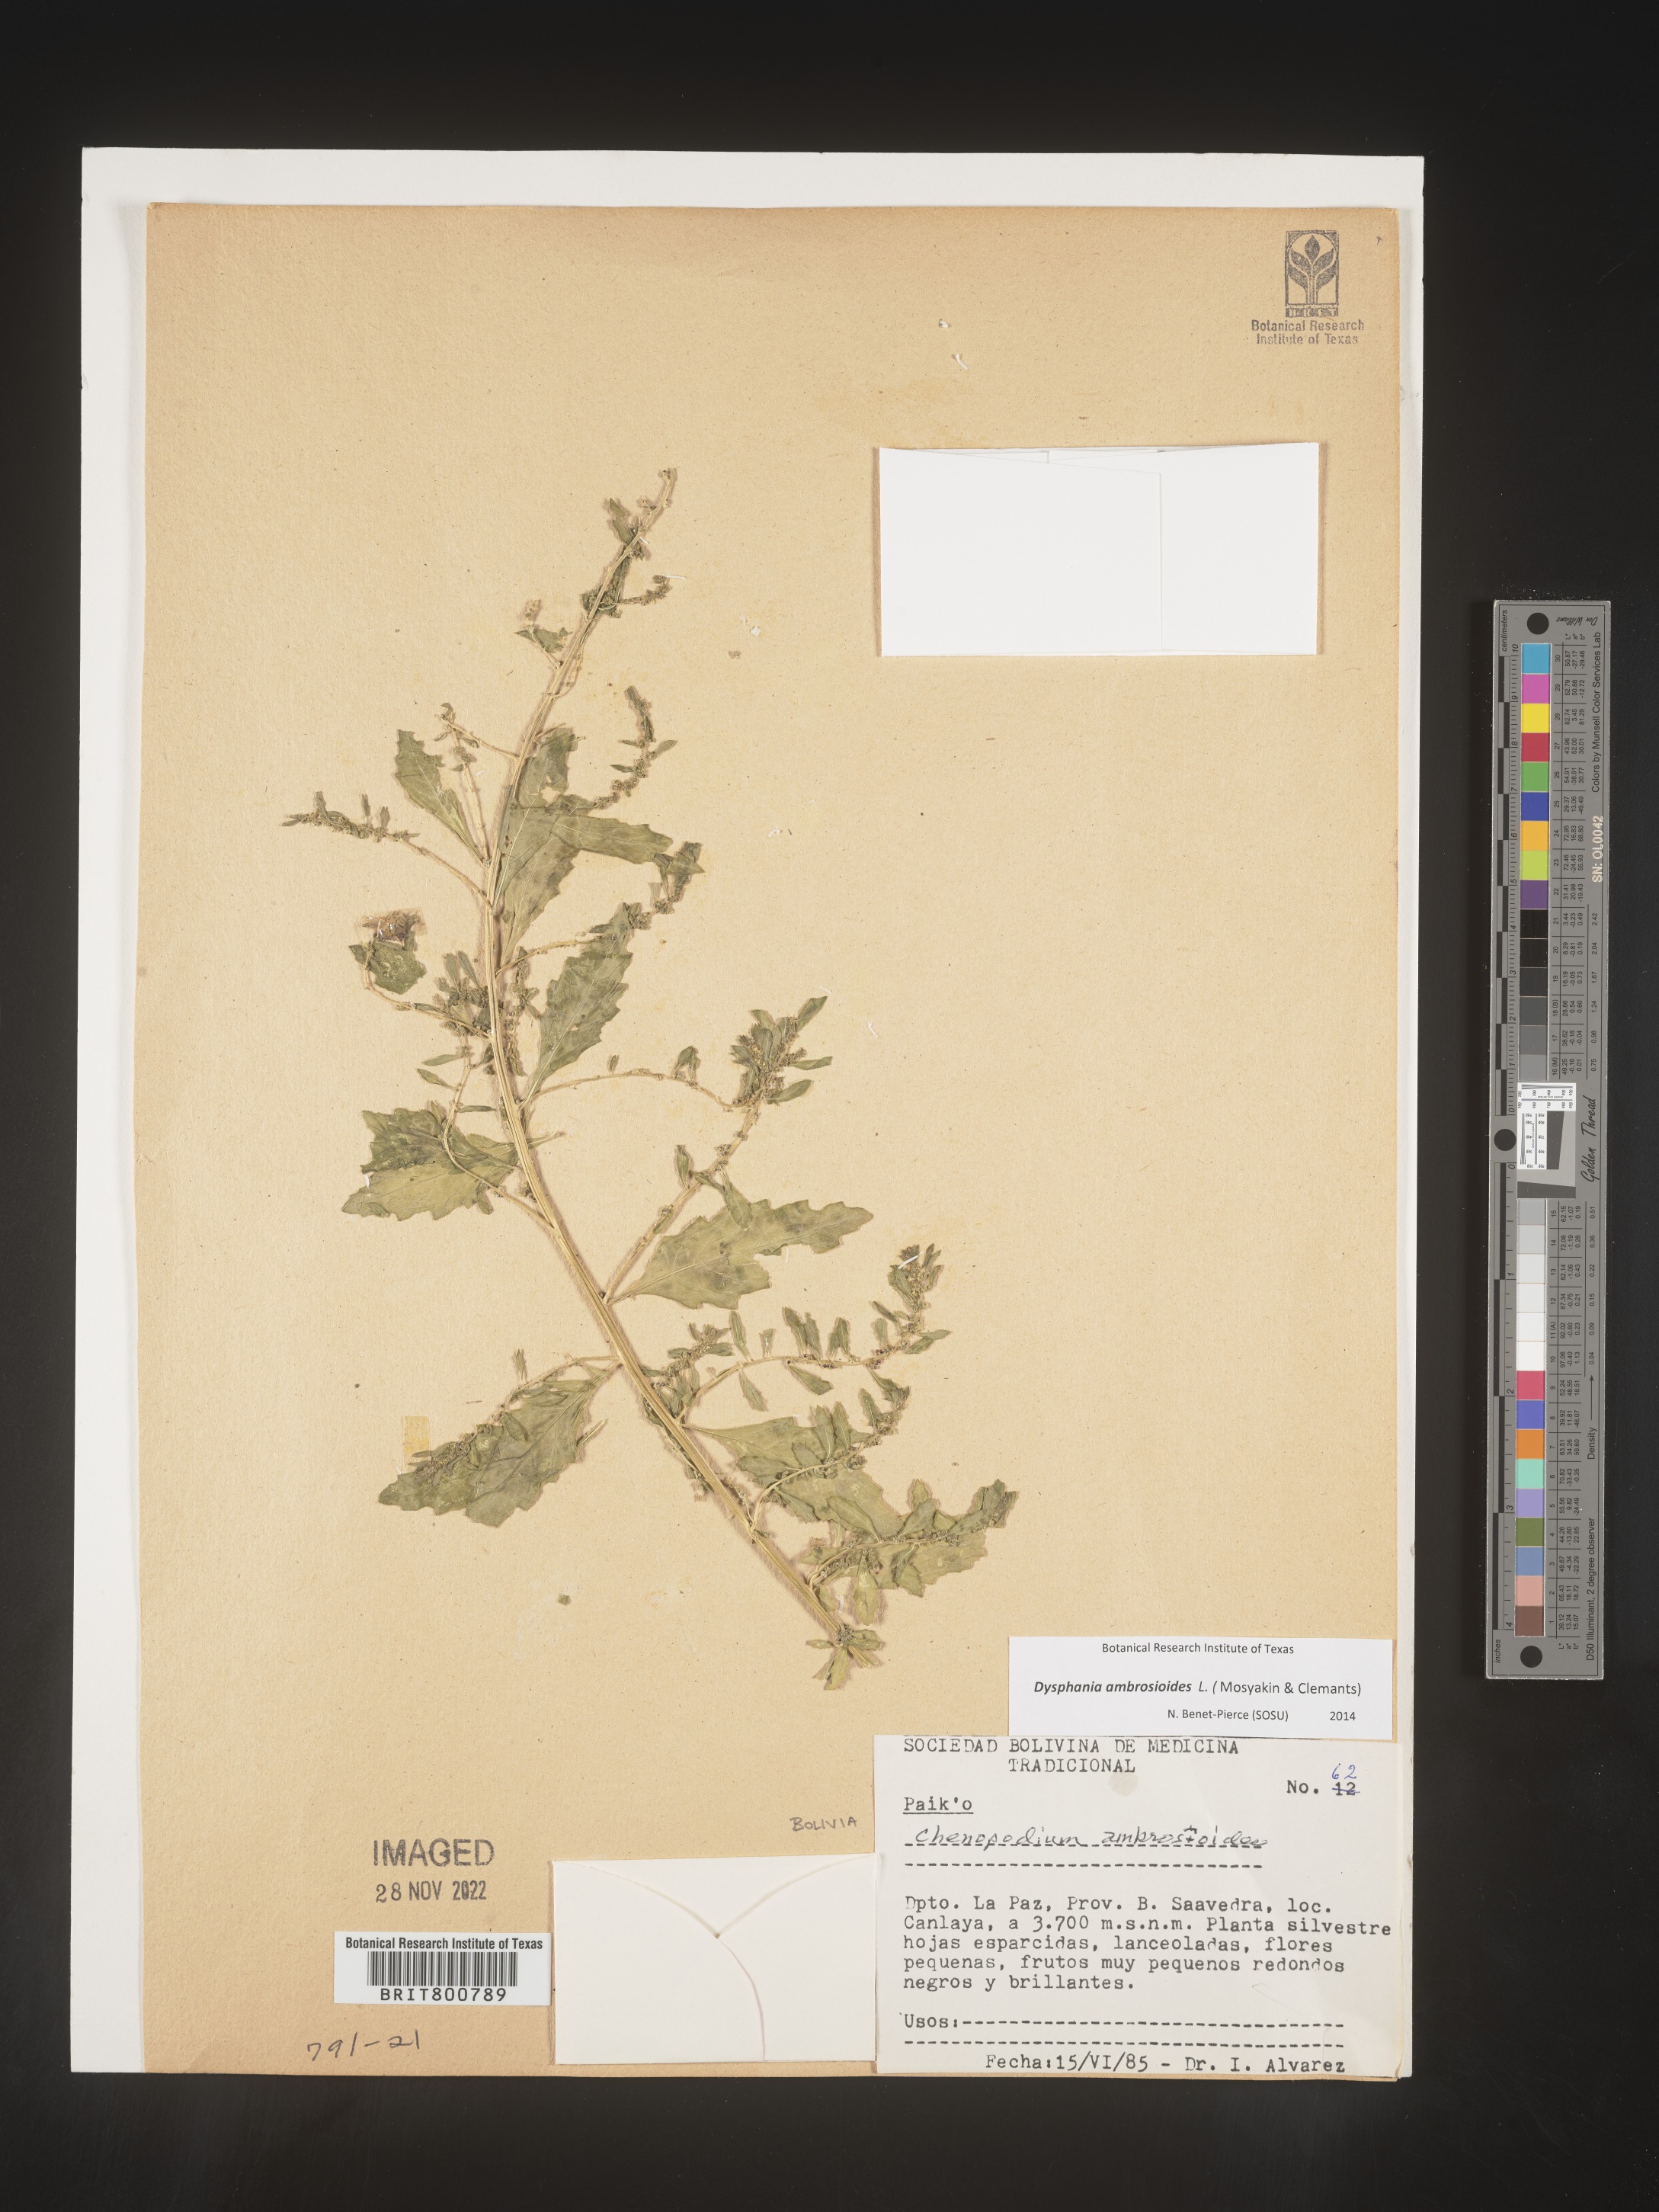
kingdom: Plantae
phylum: Tracheophyta
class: Magnoliopsida
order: Caryophyllales
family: Amaranthaceae
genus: Chenopodium
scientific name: Chenopodium
